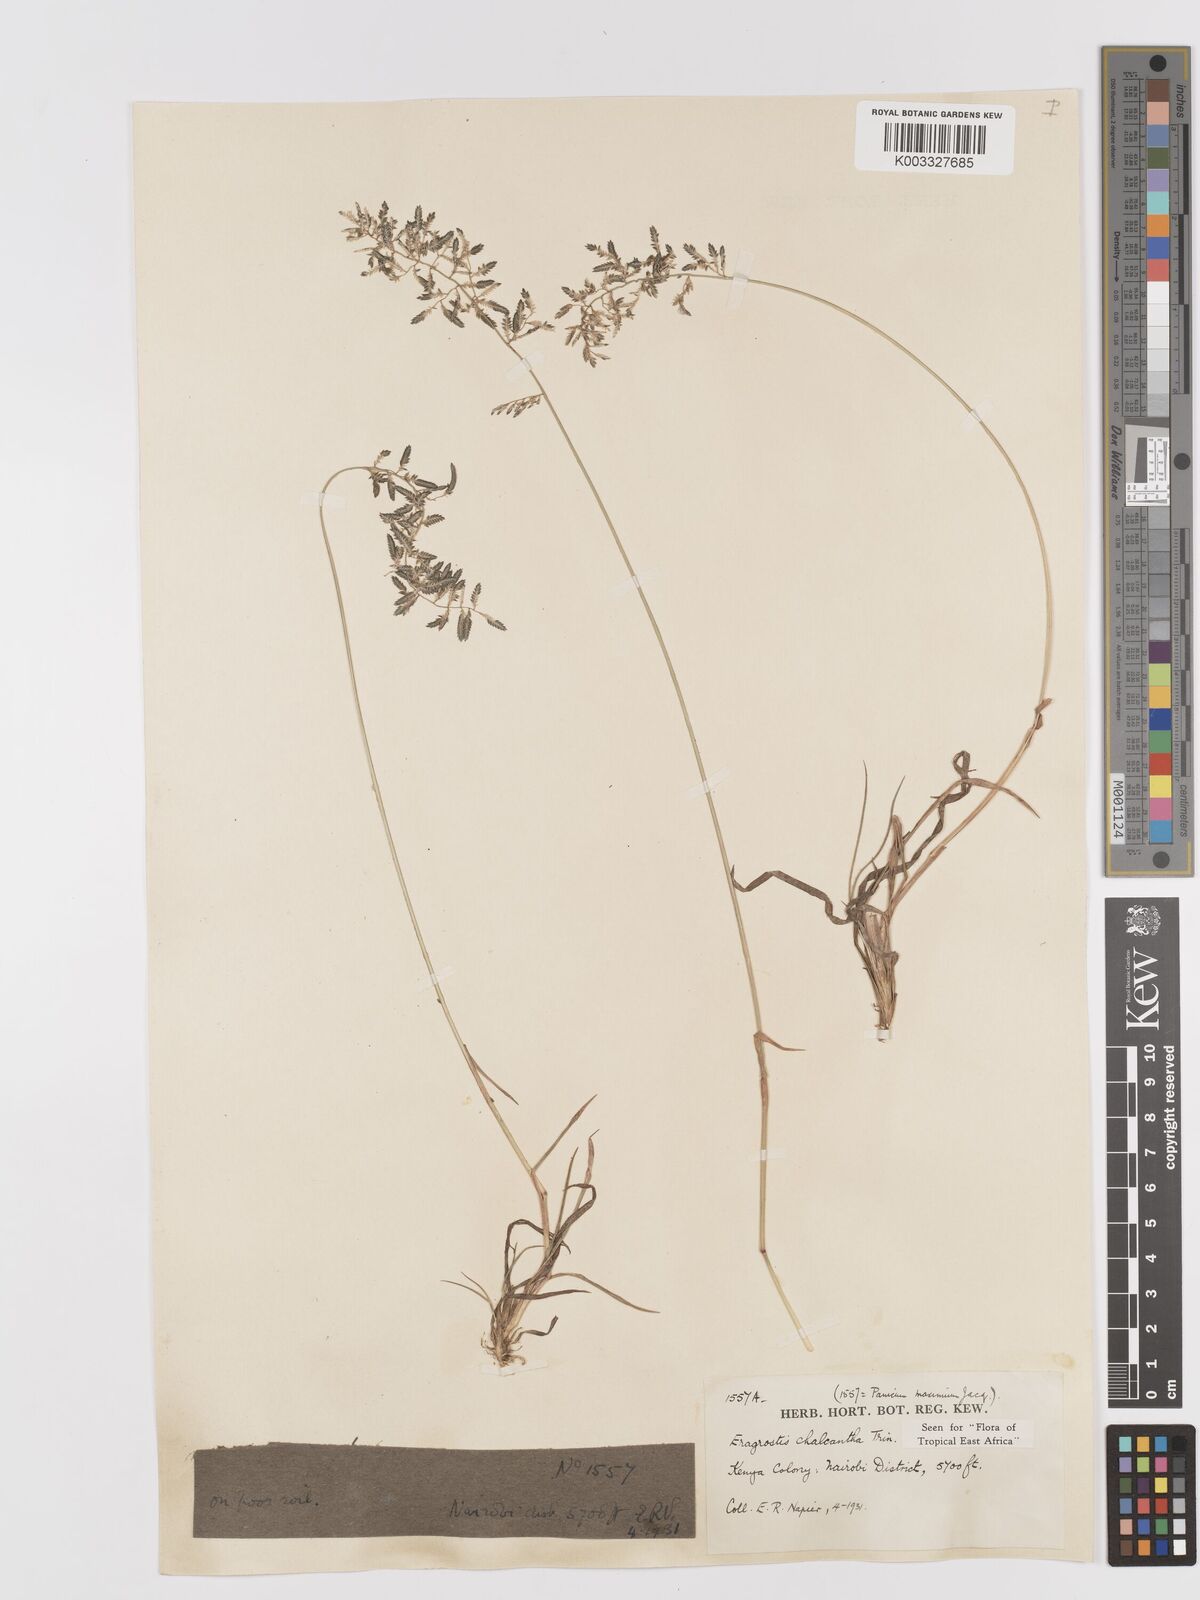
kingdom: Plantae
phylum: Tracheophyta
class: Liliopsida
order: Poales
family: Poaceae
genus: Eragrostis
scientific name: Eragrostis racemosa
